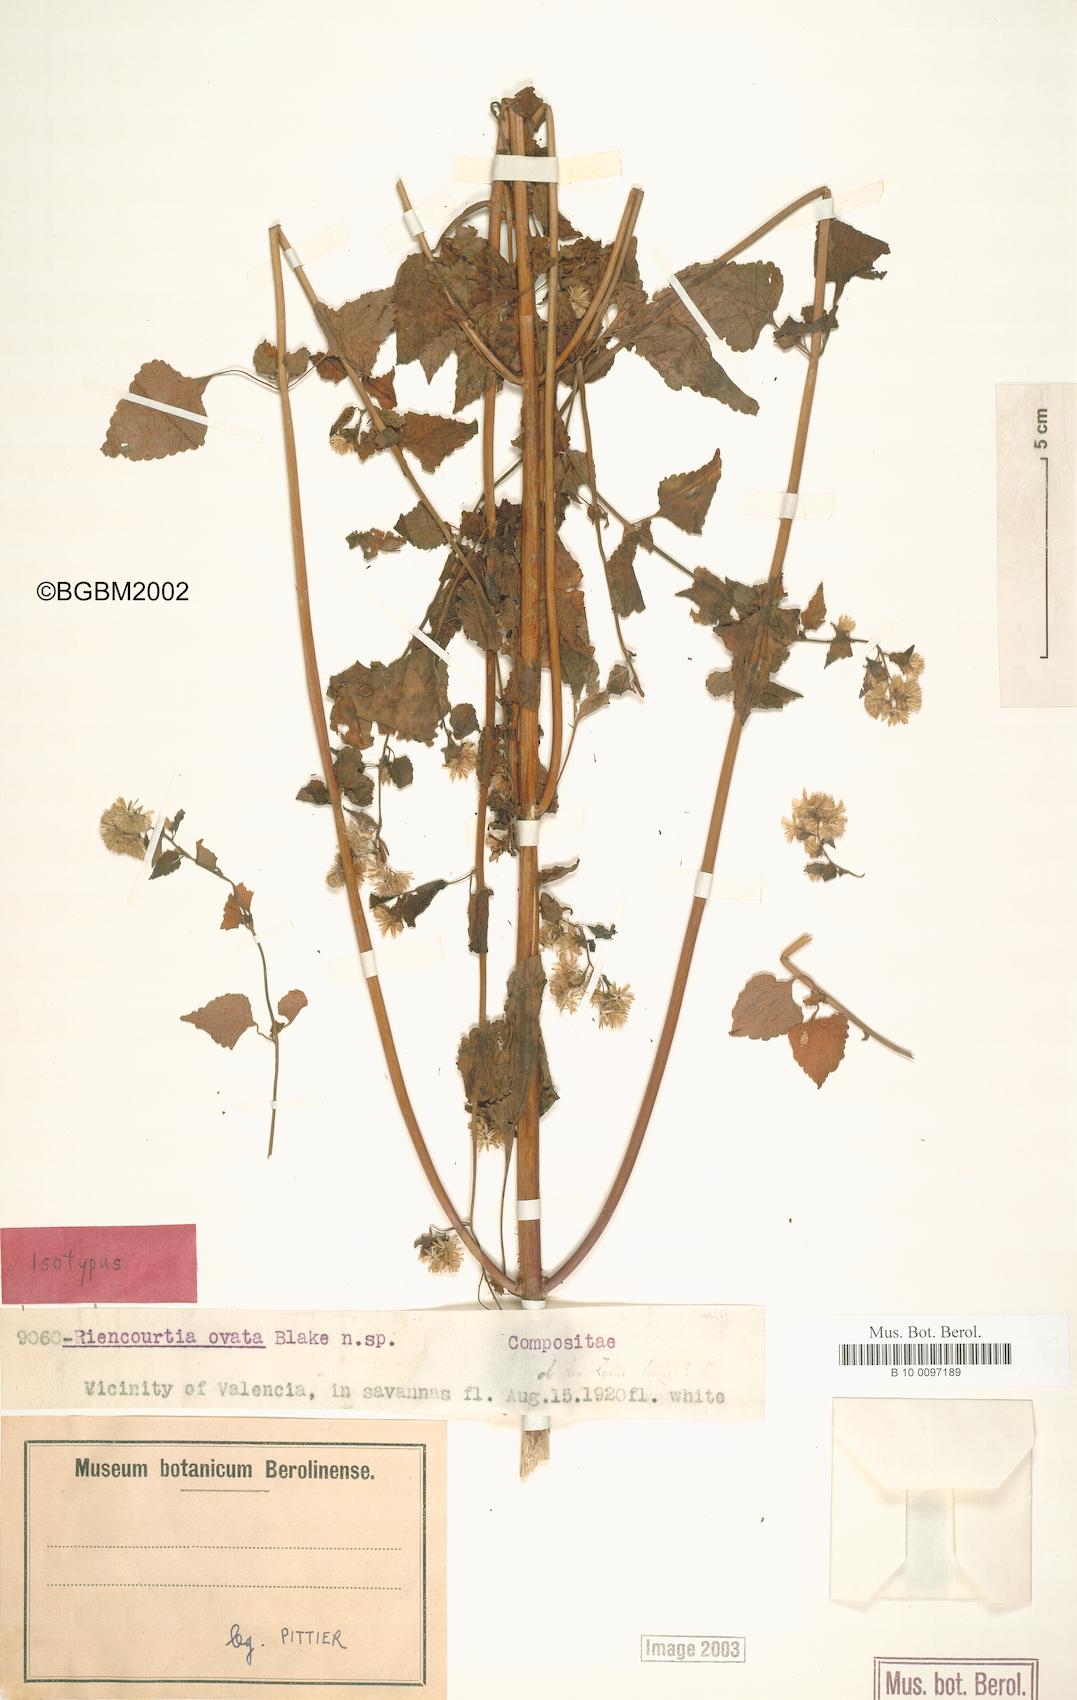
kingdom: Plantae
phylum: Tracheophyta
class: Magnoliopsida
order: Asterales
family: Asteraceae
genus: Riencourtia
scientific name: Riencourtia latifolia
